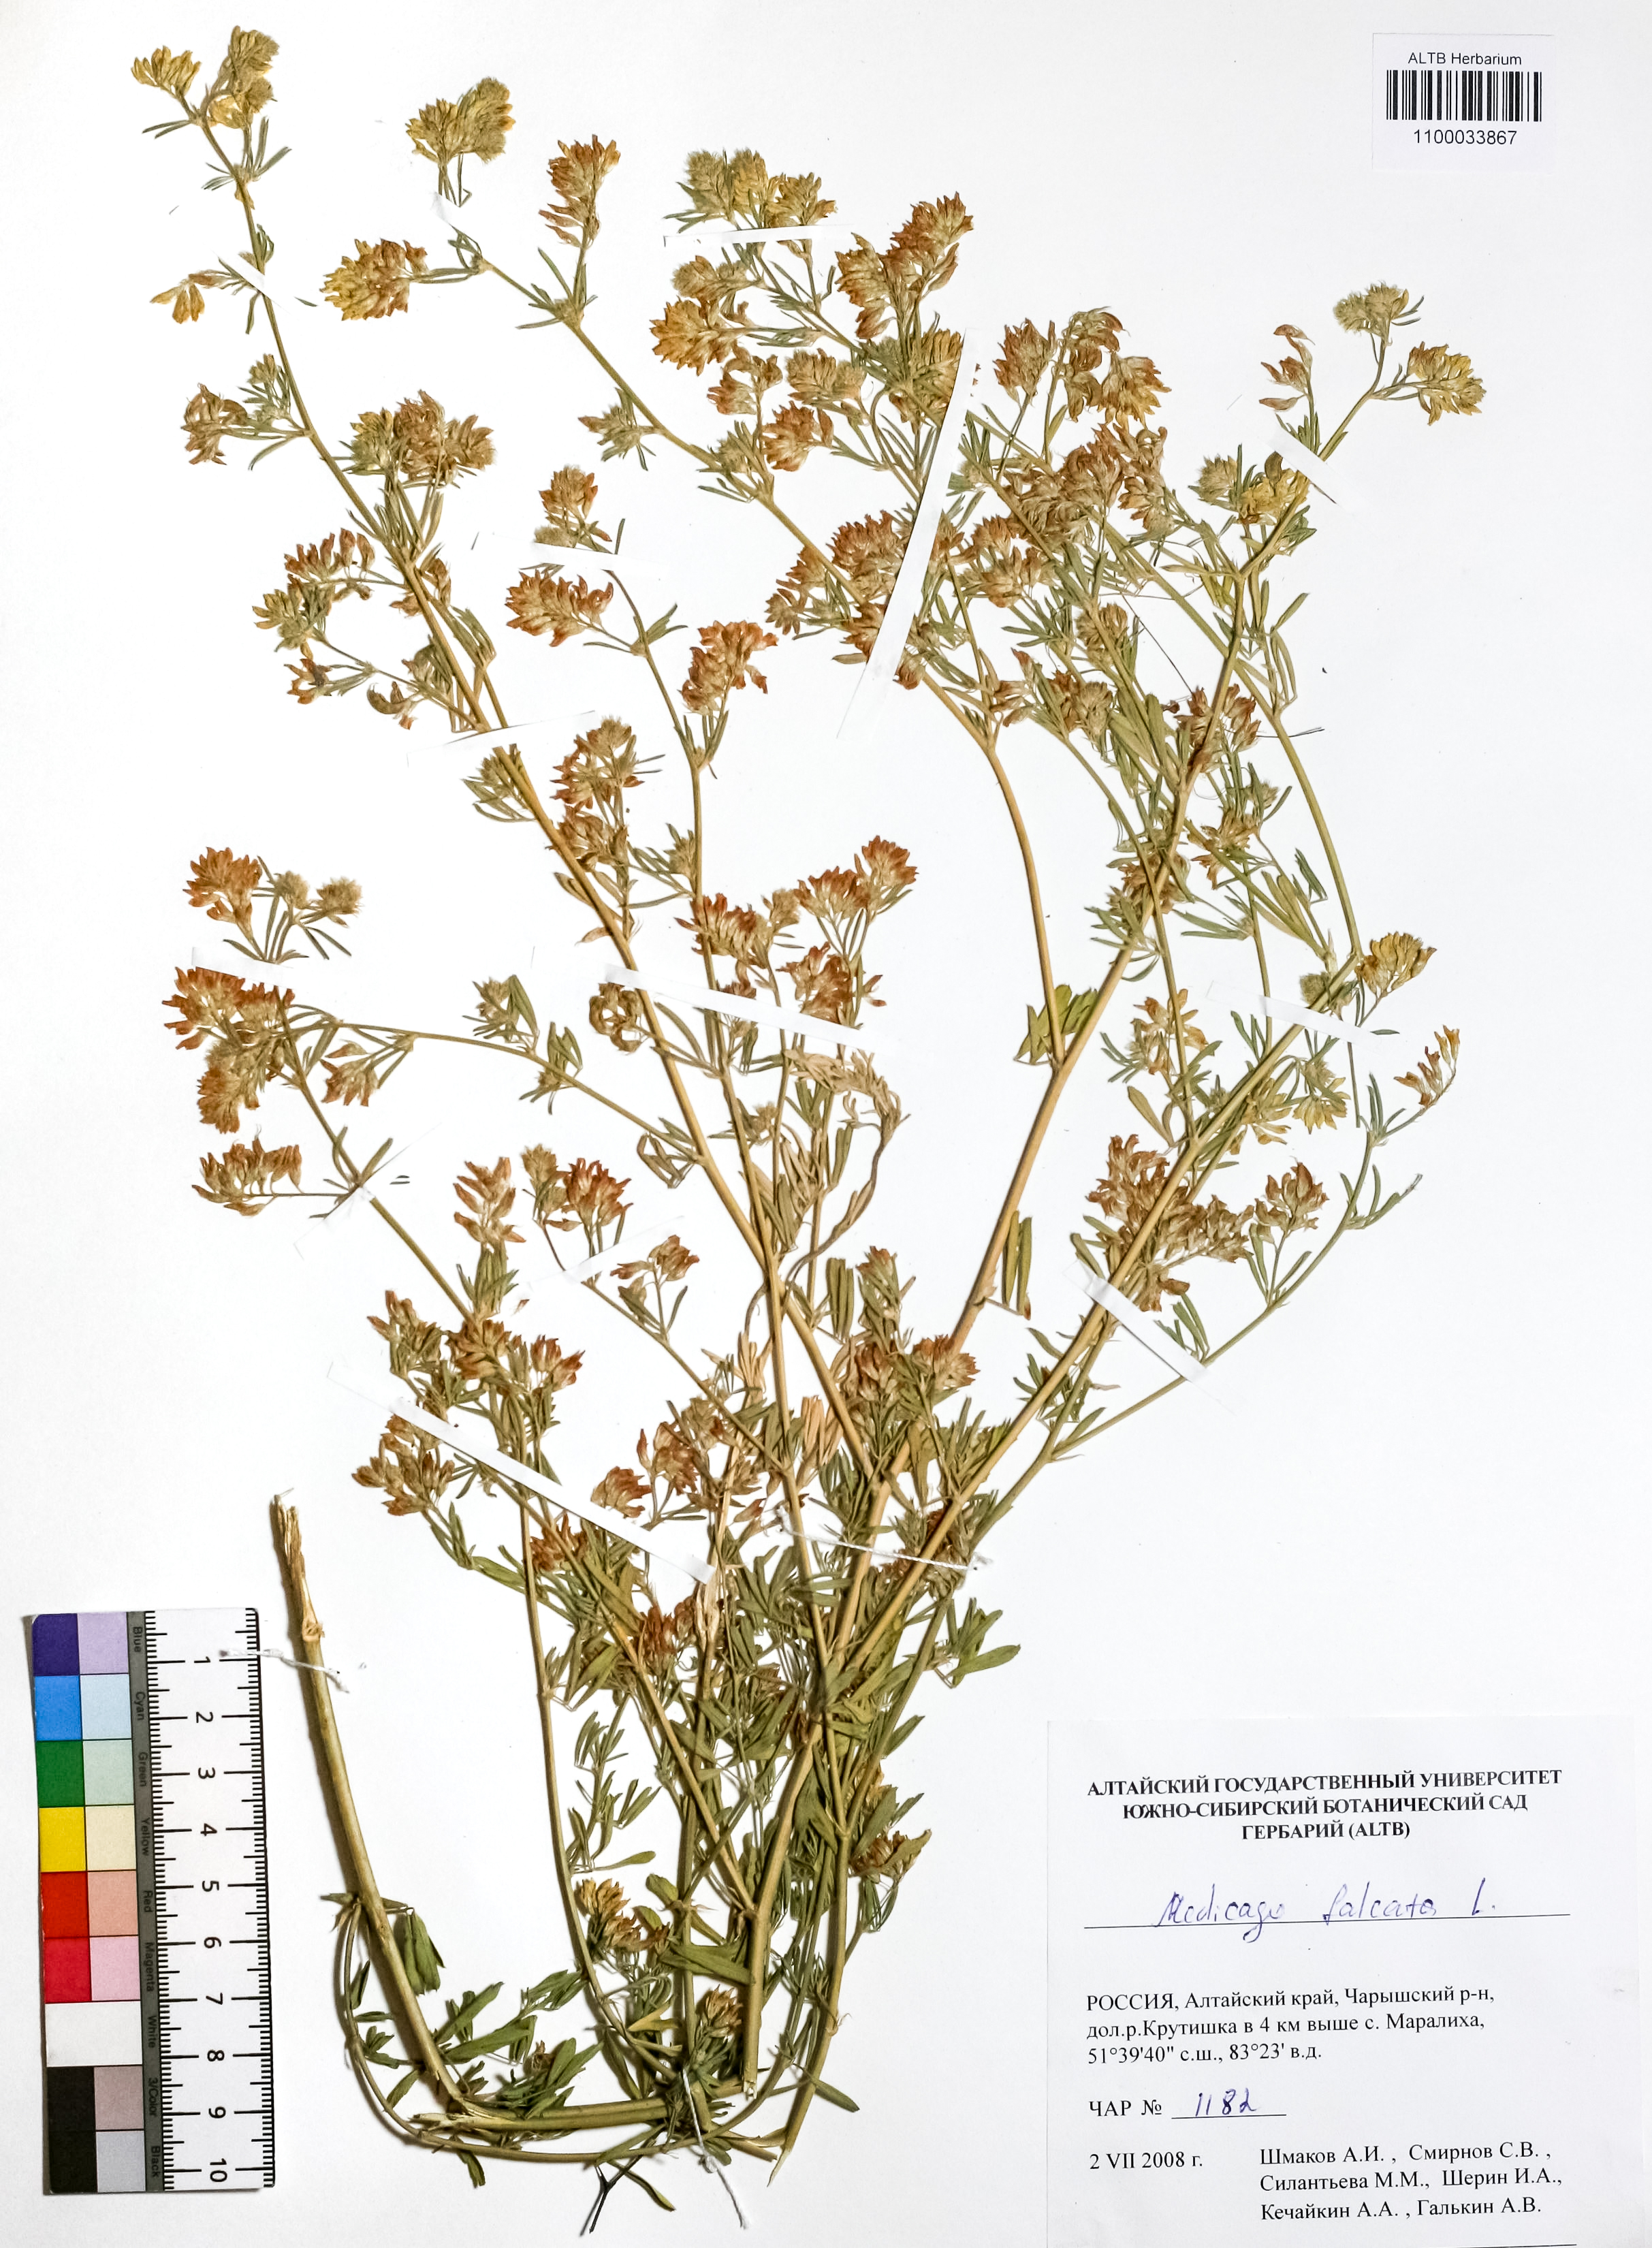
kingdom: Plantae
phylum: Tracheophyta
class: Magnoliopsida
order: Fabales
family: Fabaceae
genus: Medicago
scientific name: Medicago falcata
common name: Sickle medick
